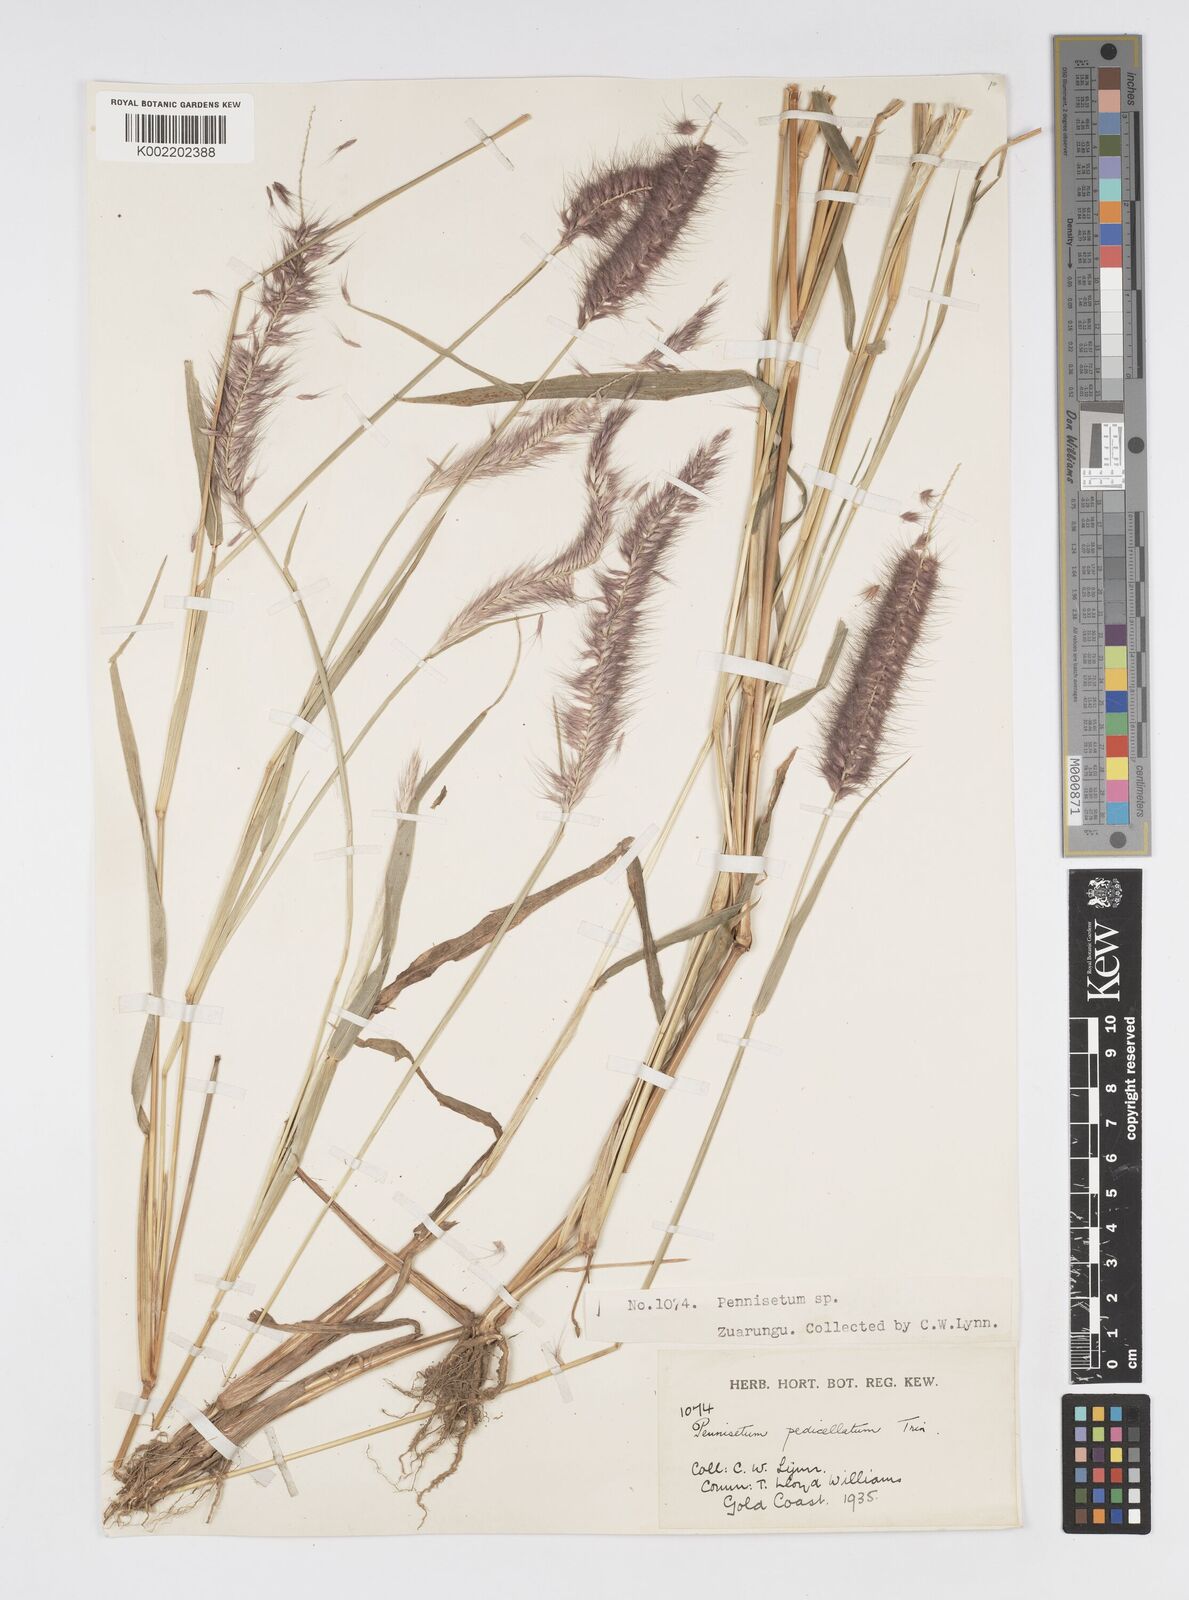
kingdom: Plantae
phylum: Tracheophyta
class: Liliopsida
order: Poales
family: Poaceae
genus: Cenchrus
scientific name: Cenchrus pedicellatus
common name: Hairy fountain grass
